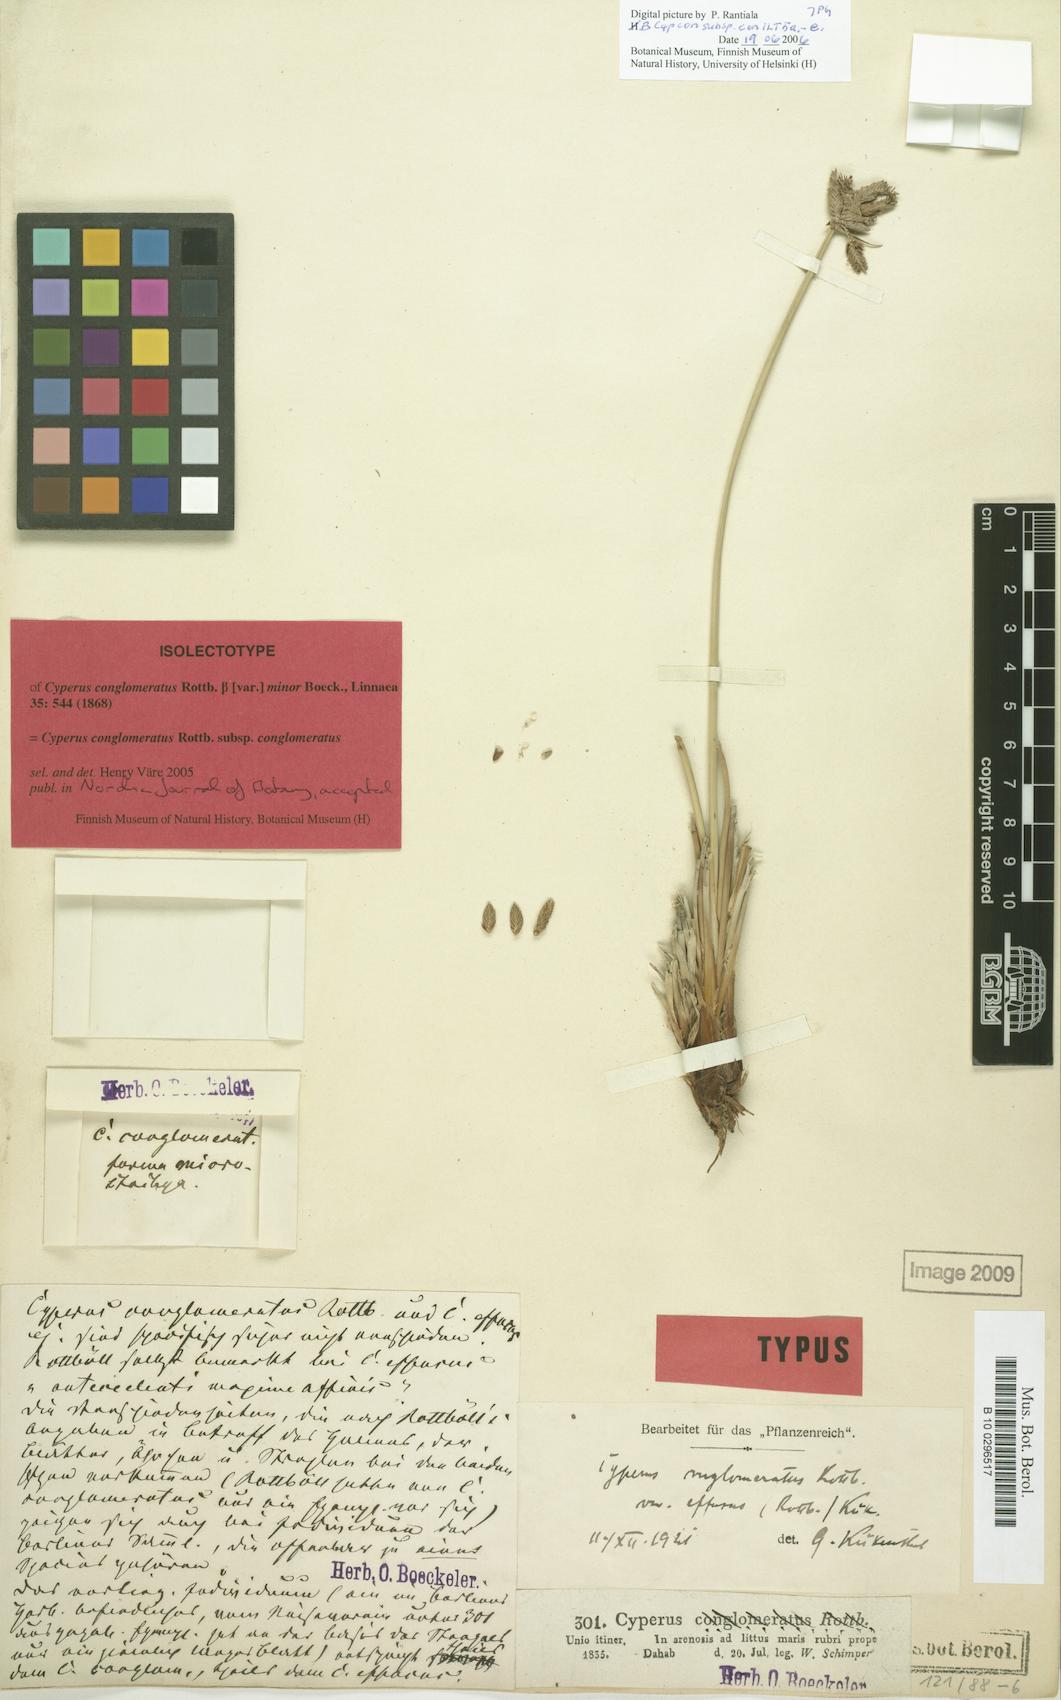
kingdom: Plantae
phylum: Tracheophyta
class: Liliopsida
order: Poales
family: Cyperaceae
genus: Cyperus
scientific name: Cyperus conglomeratus
